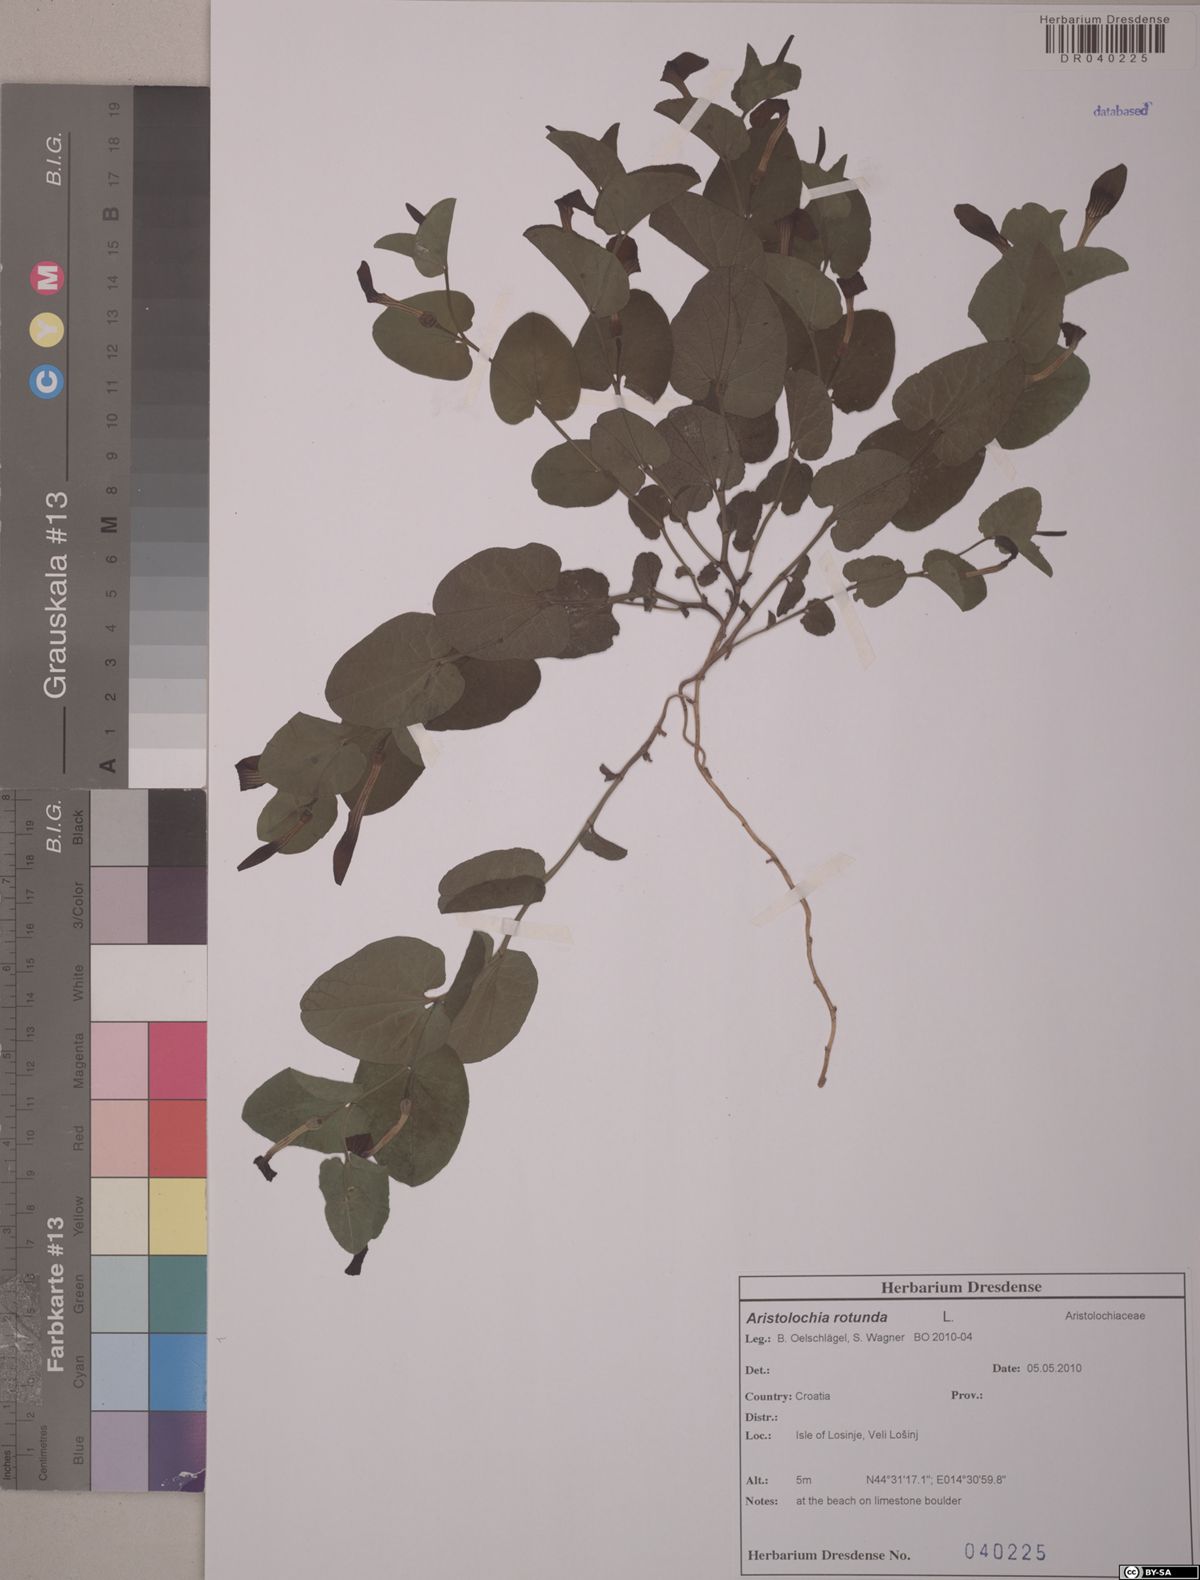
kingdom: Plantae
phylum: Tracheophyta
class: Magnoliopsida
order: Piperales
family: Aristolochiaceae
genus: Aristolochia
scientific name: Aristolochia rotunda
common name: Smearwort
